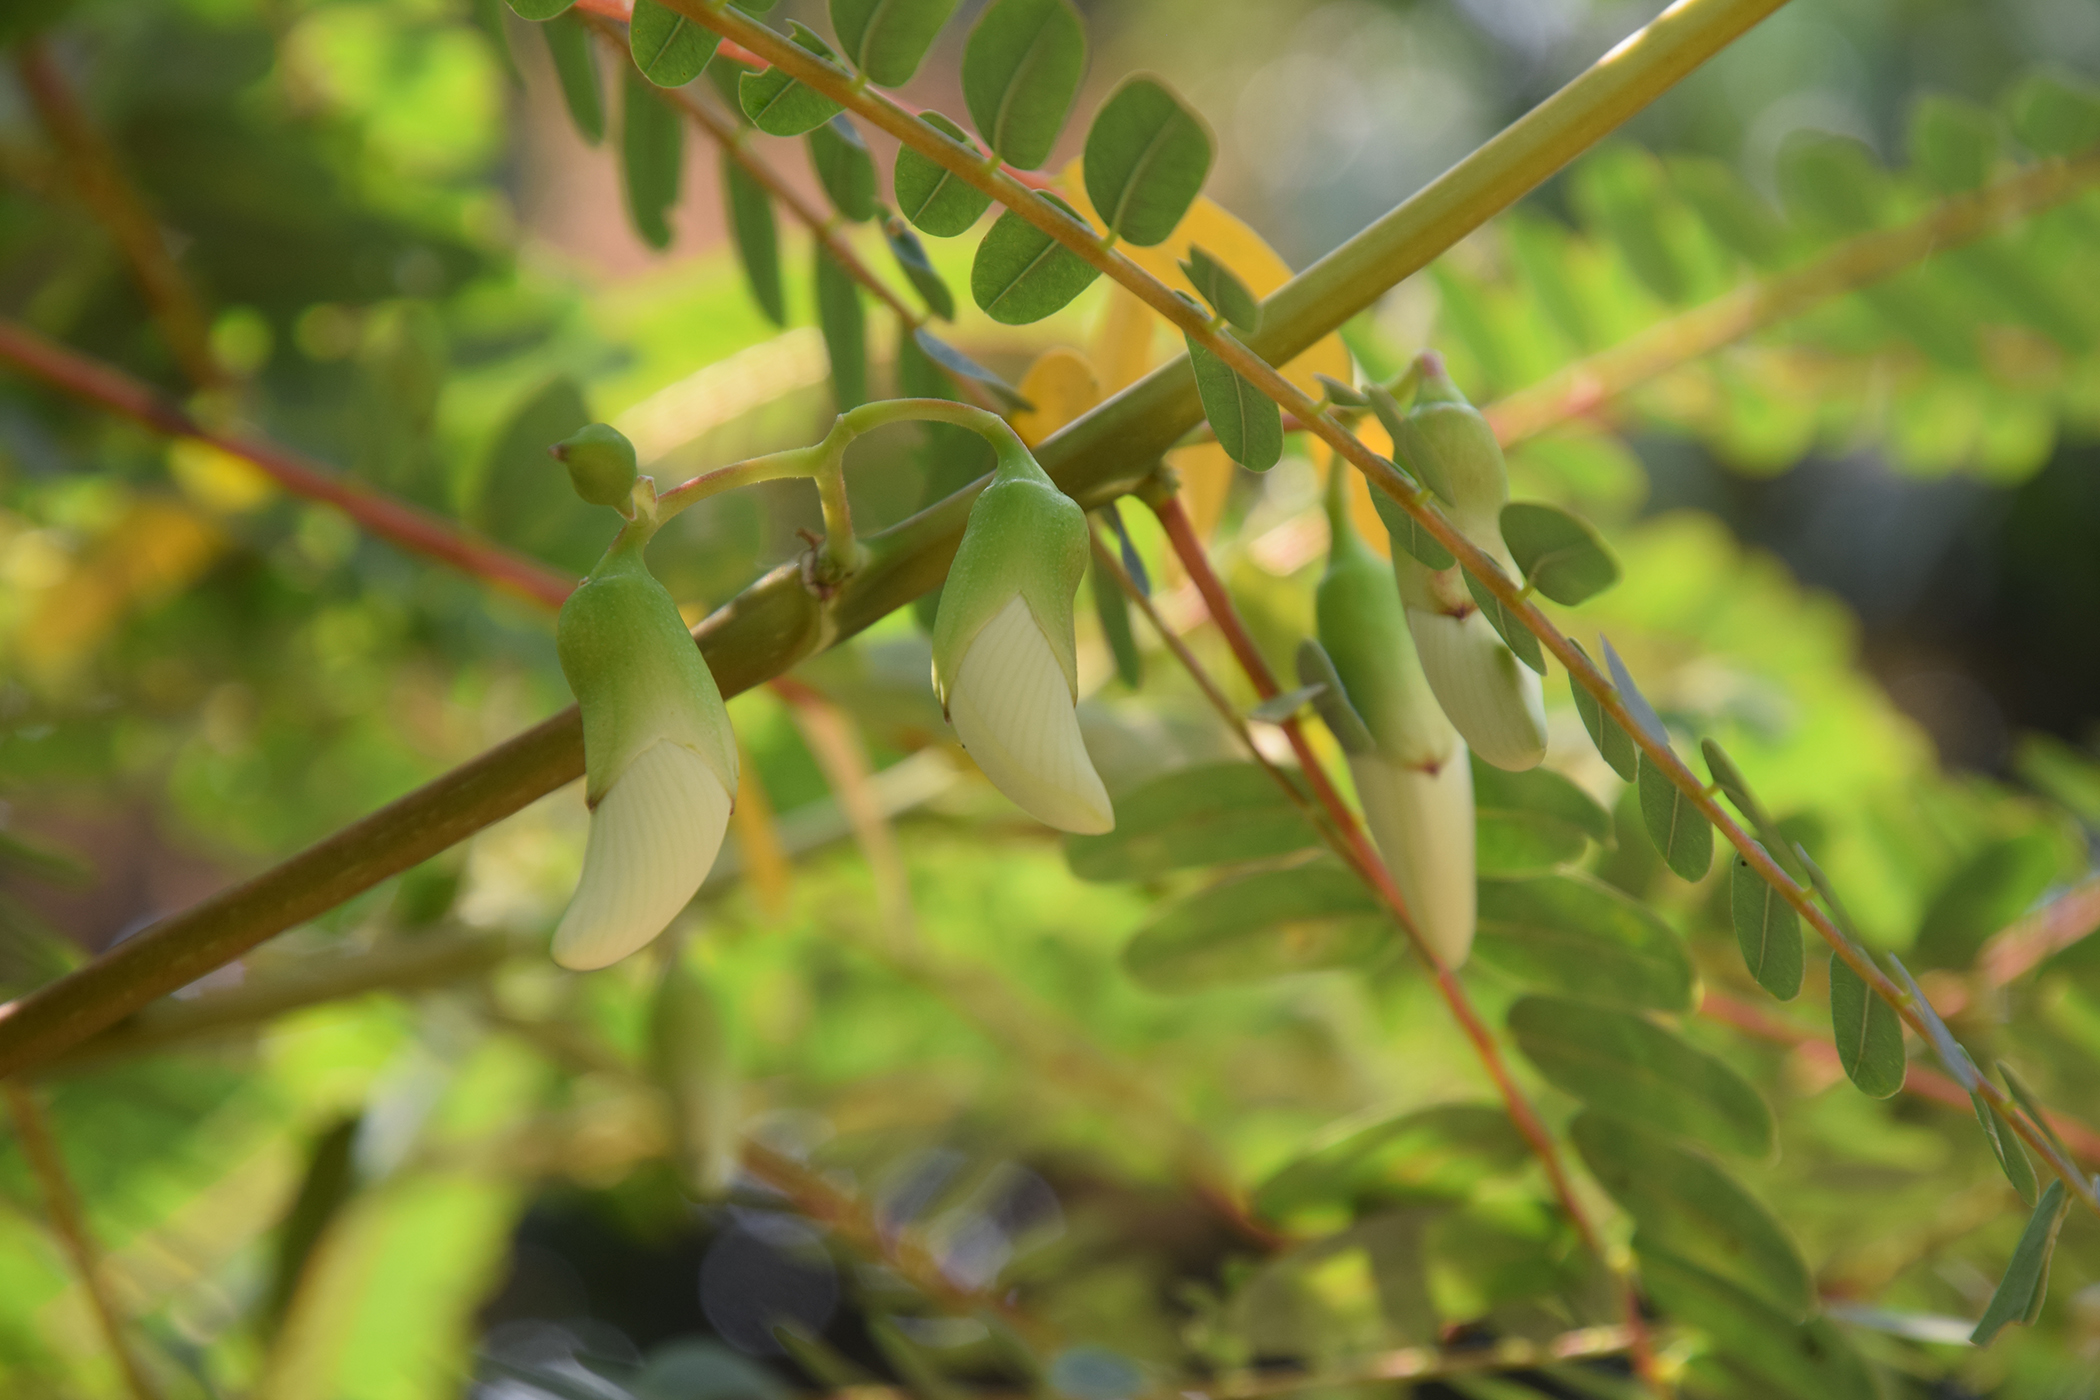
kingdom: Plantae
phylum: Tracheophyta
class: Magnoliopsida
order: Fabales
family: Fabaceae
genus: Sesbania
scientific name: Sesbania grandiflora
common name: Vegetable-hummingbird
